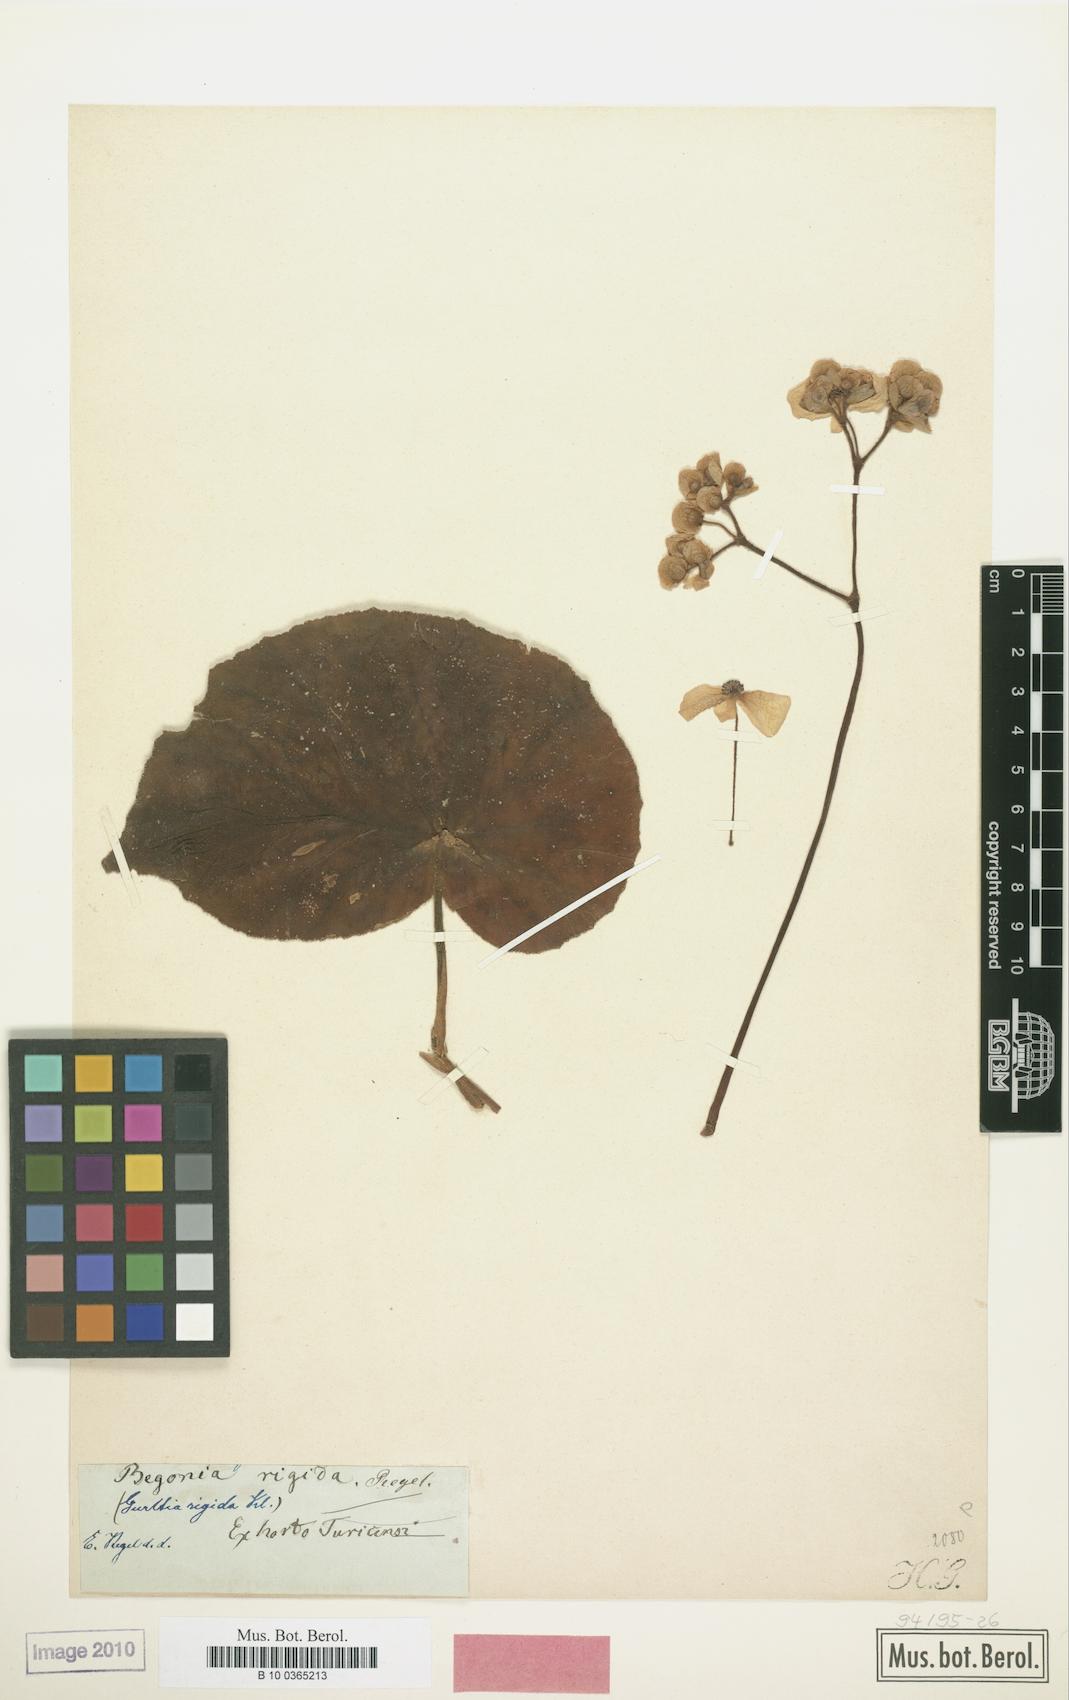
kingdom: Plantae
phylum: Tracheophyta
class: Magnoliopsida
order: Cucurbitales
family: Begoniaceae
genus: Begonia
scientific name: Begonia rigida
